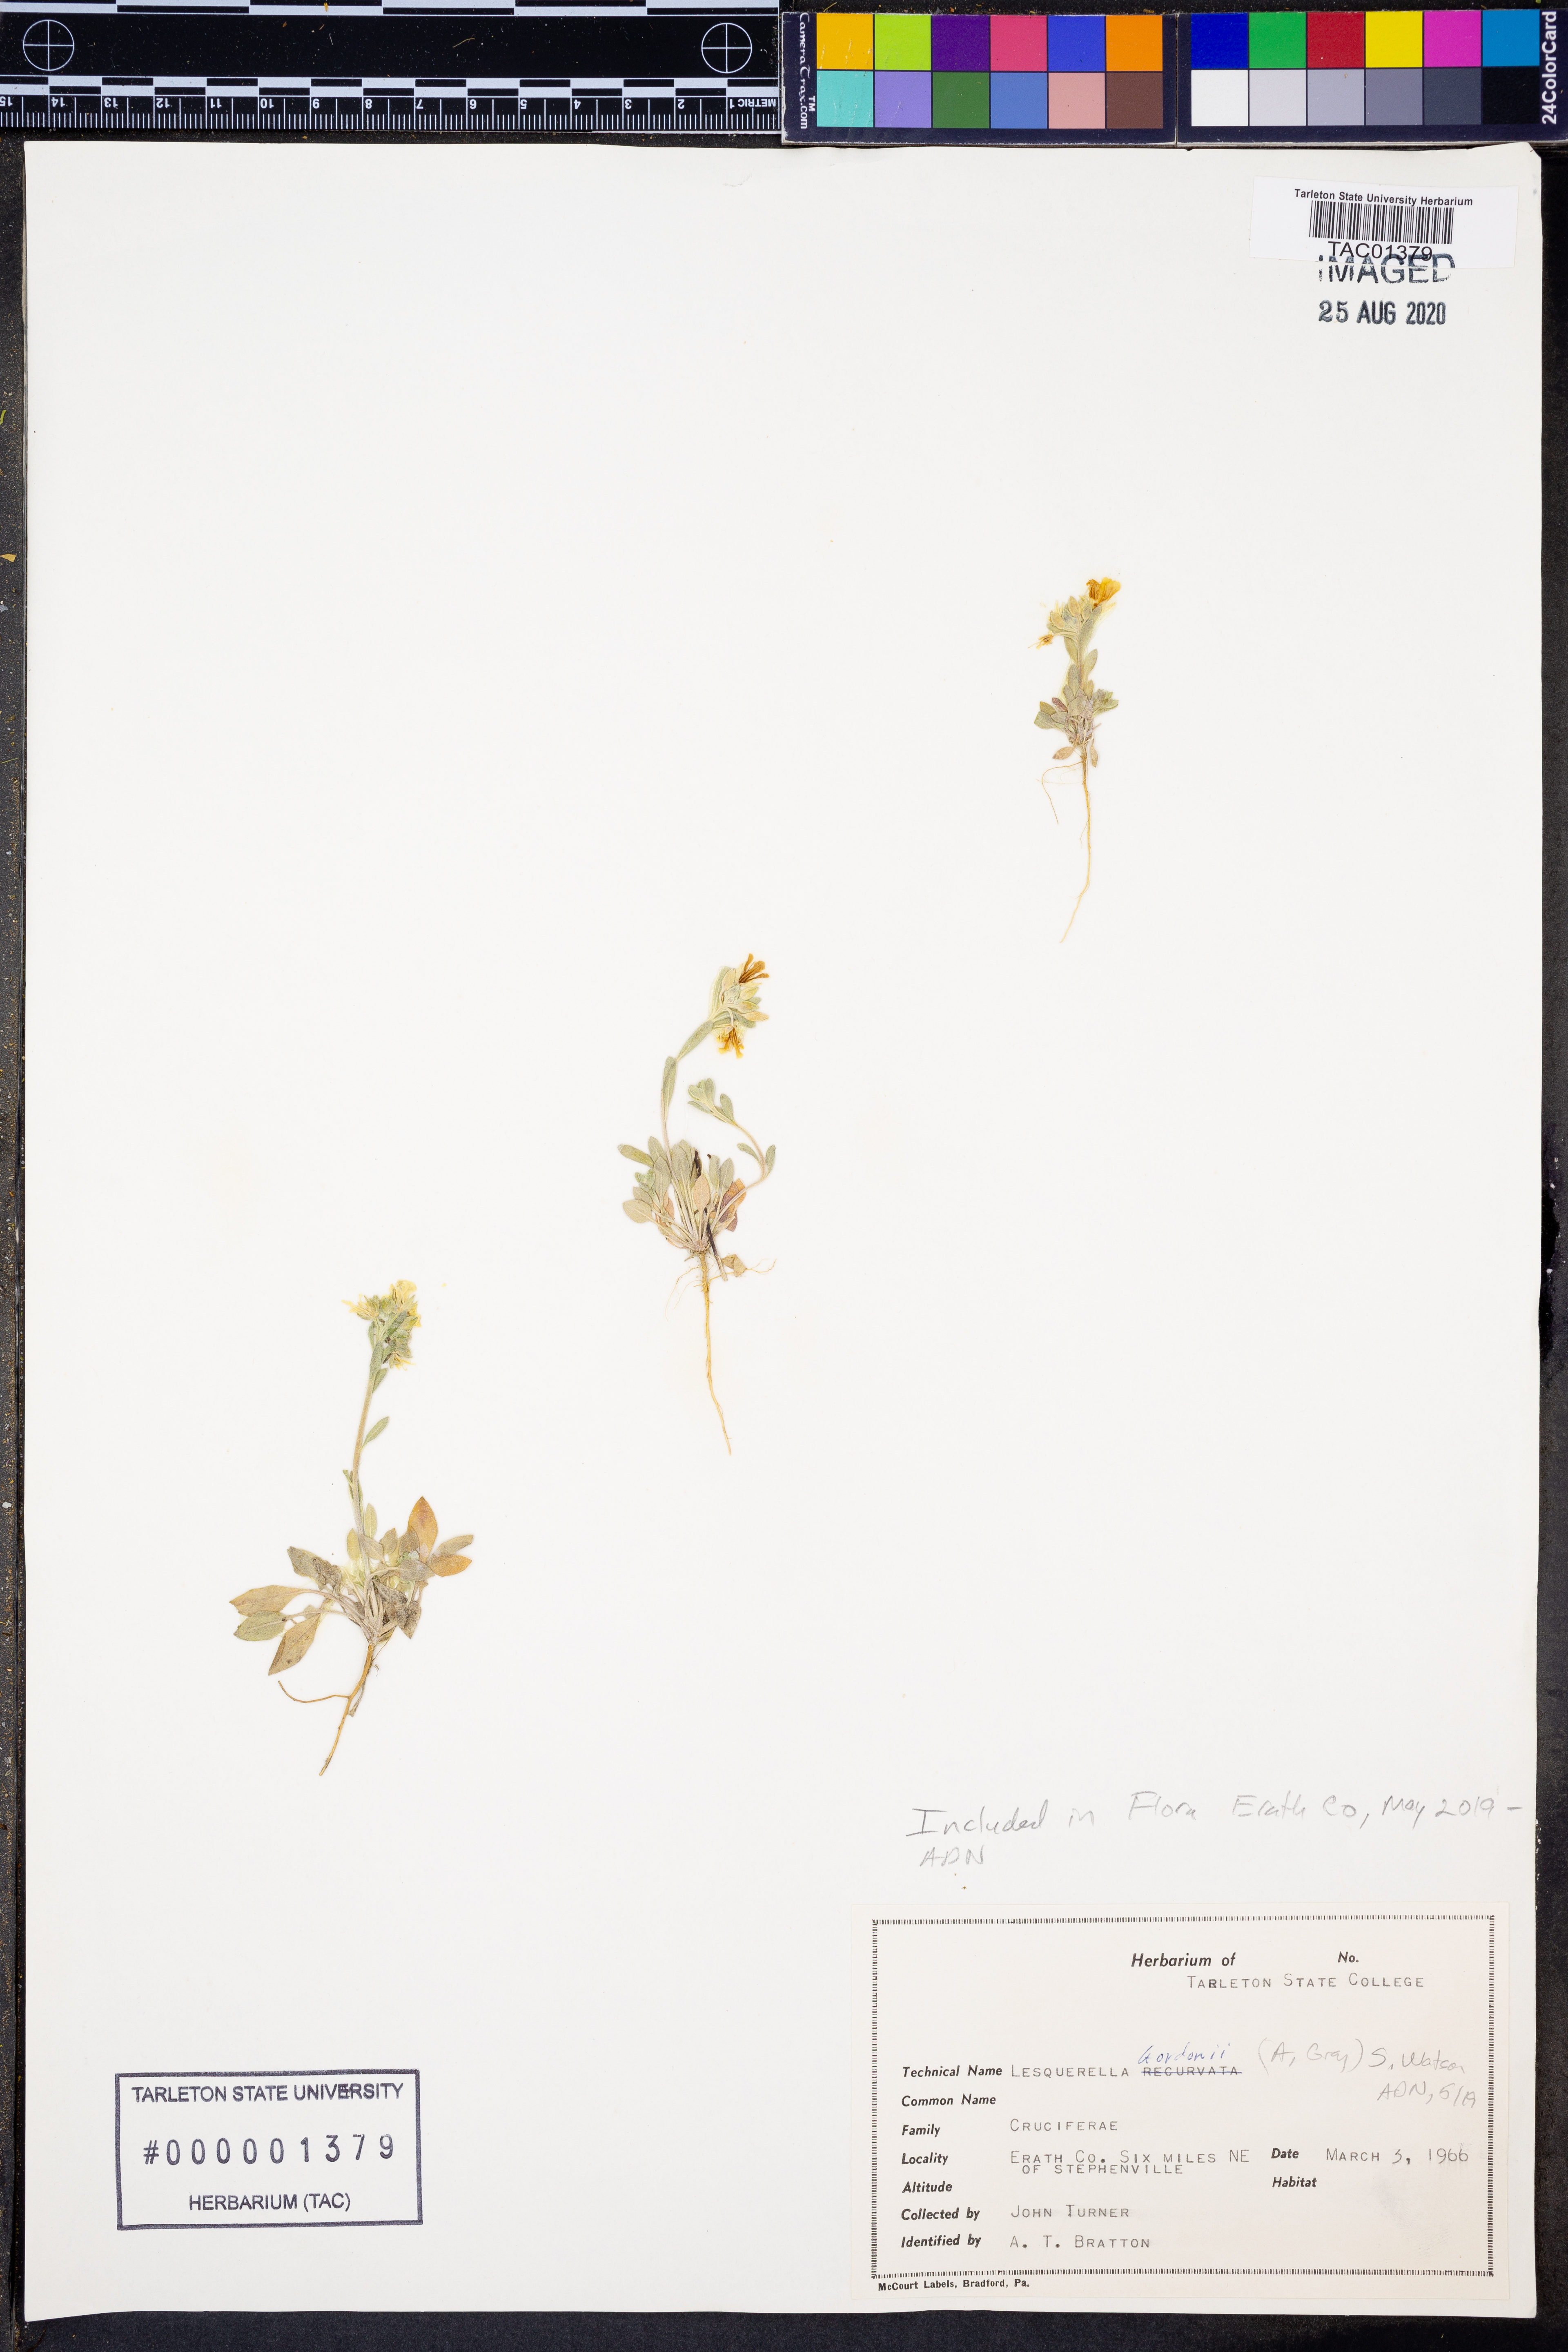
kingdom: Plantae
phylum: Tracheophyta
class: Magnoliopsida
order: Brassicales
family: Brassicaceae
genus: Physaria
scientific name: Physaria gordonii
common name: Gordon's bladderpod
